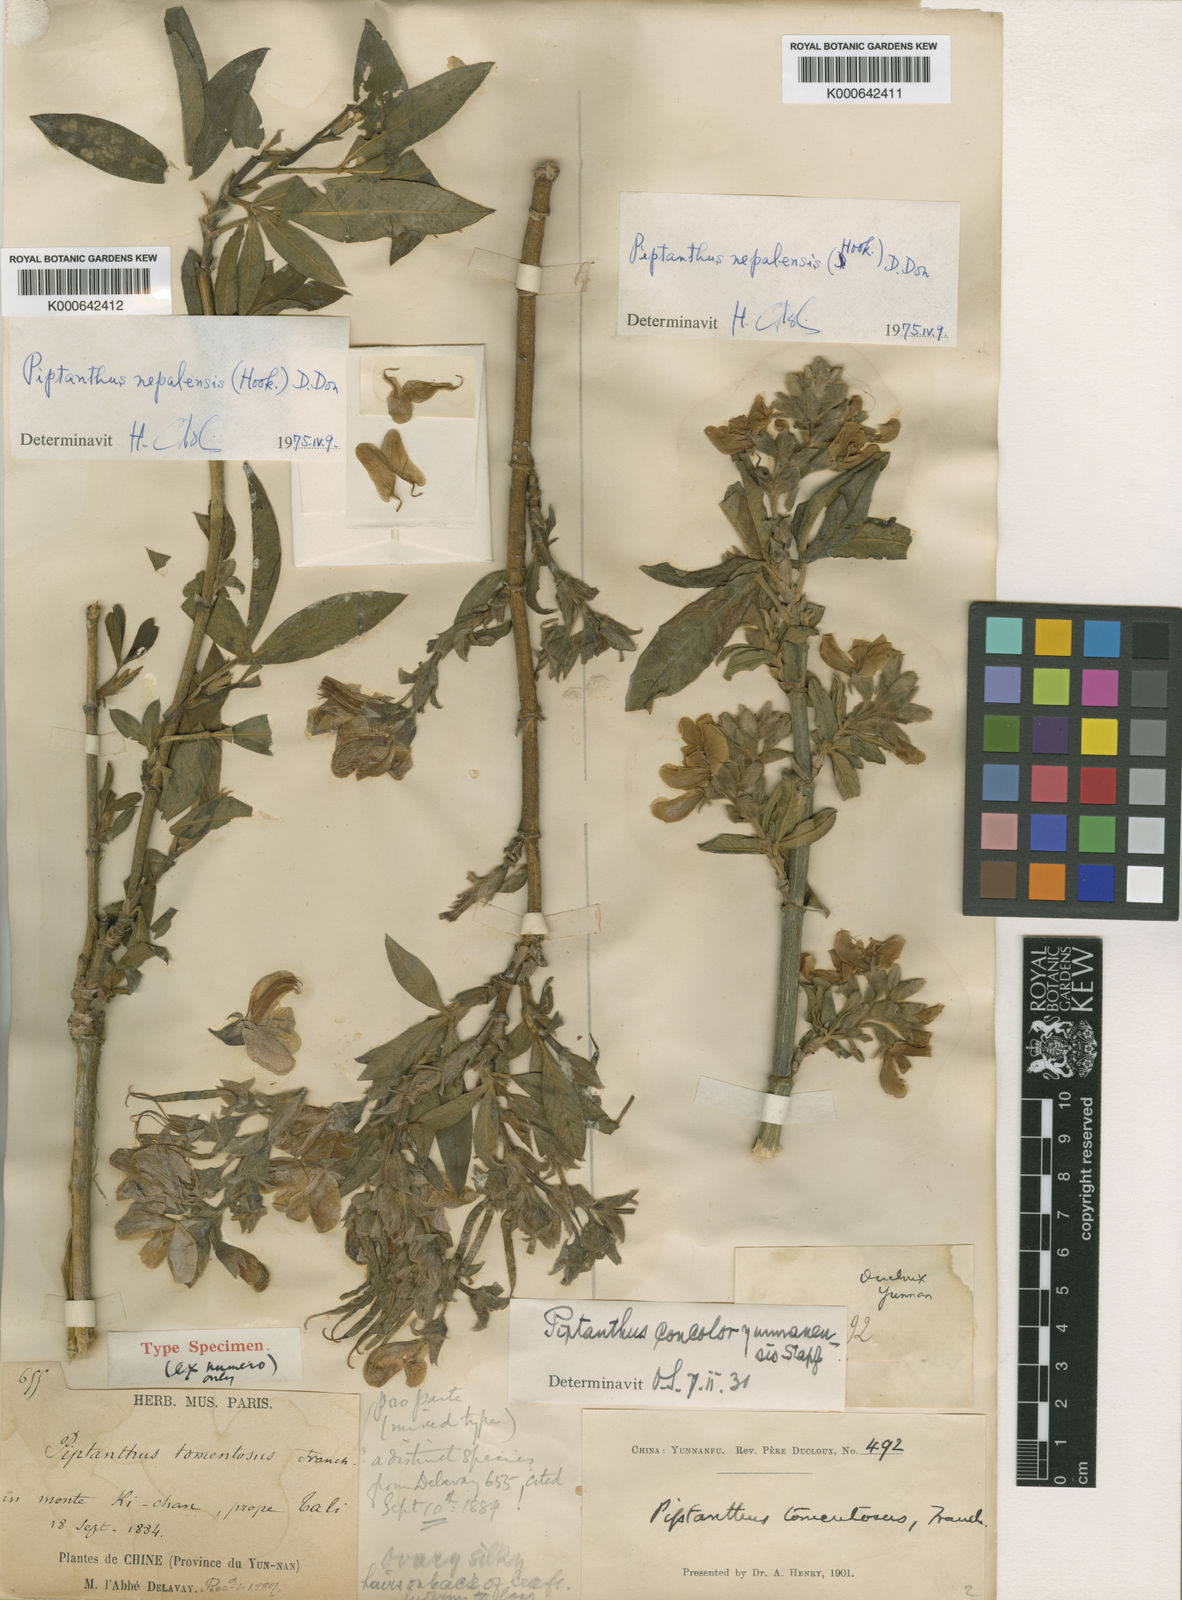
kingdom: Plantae
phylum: Tracheophyta
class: Magnoliopsida
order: Fabales
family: Fabaceae
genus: Piptanthus
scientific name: Piptanthus
